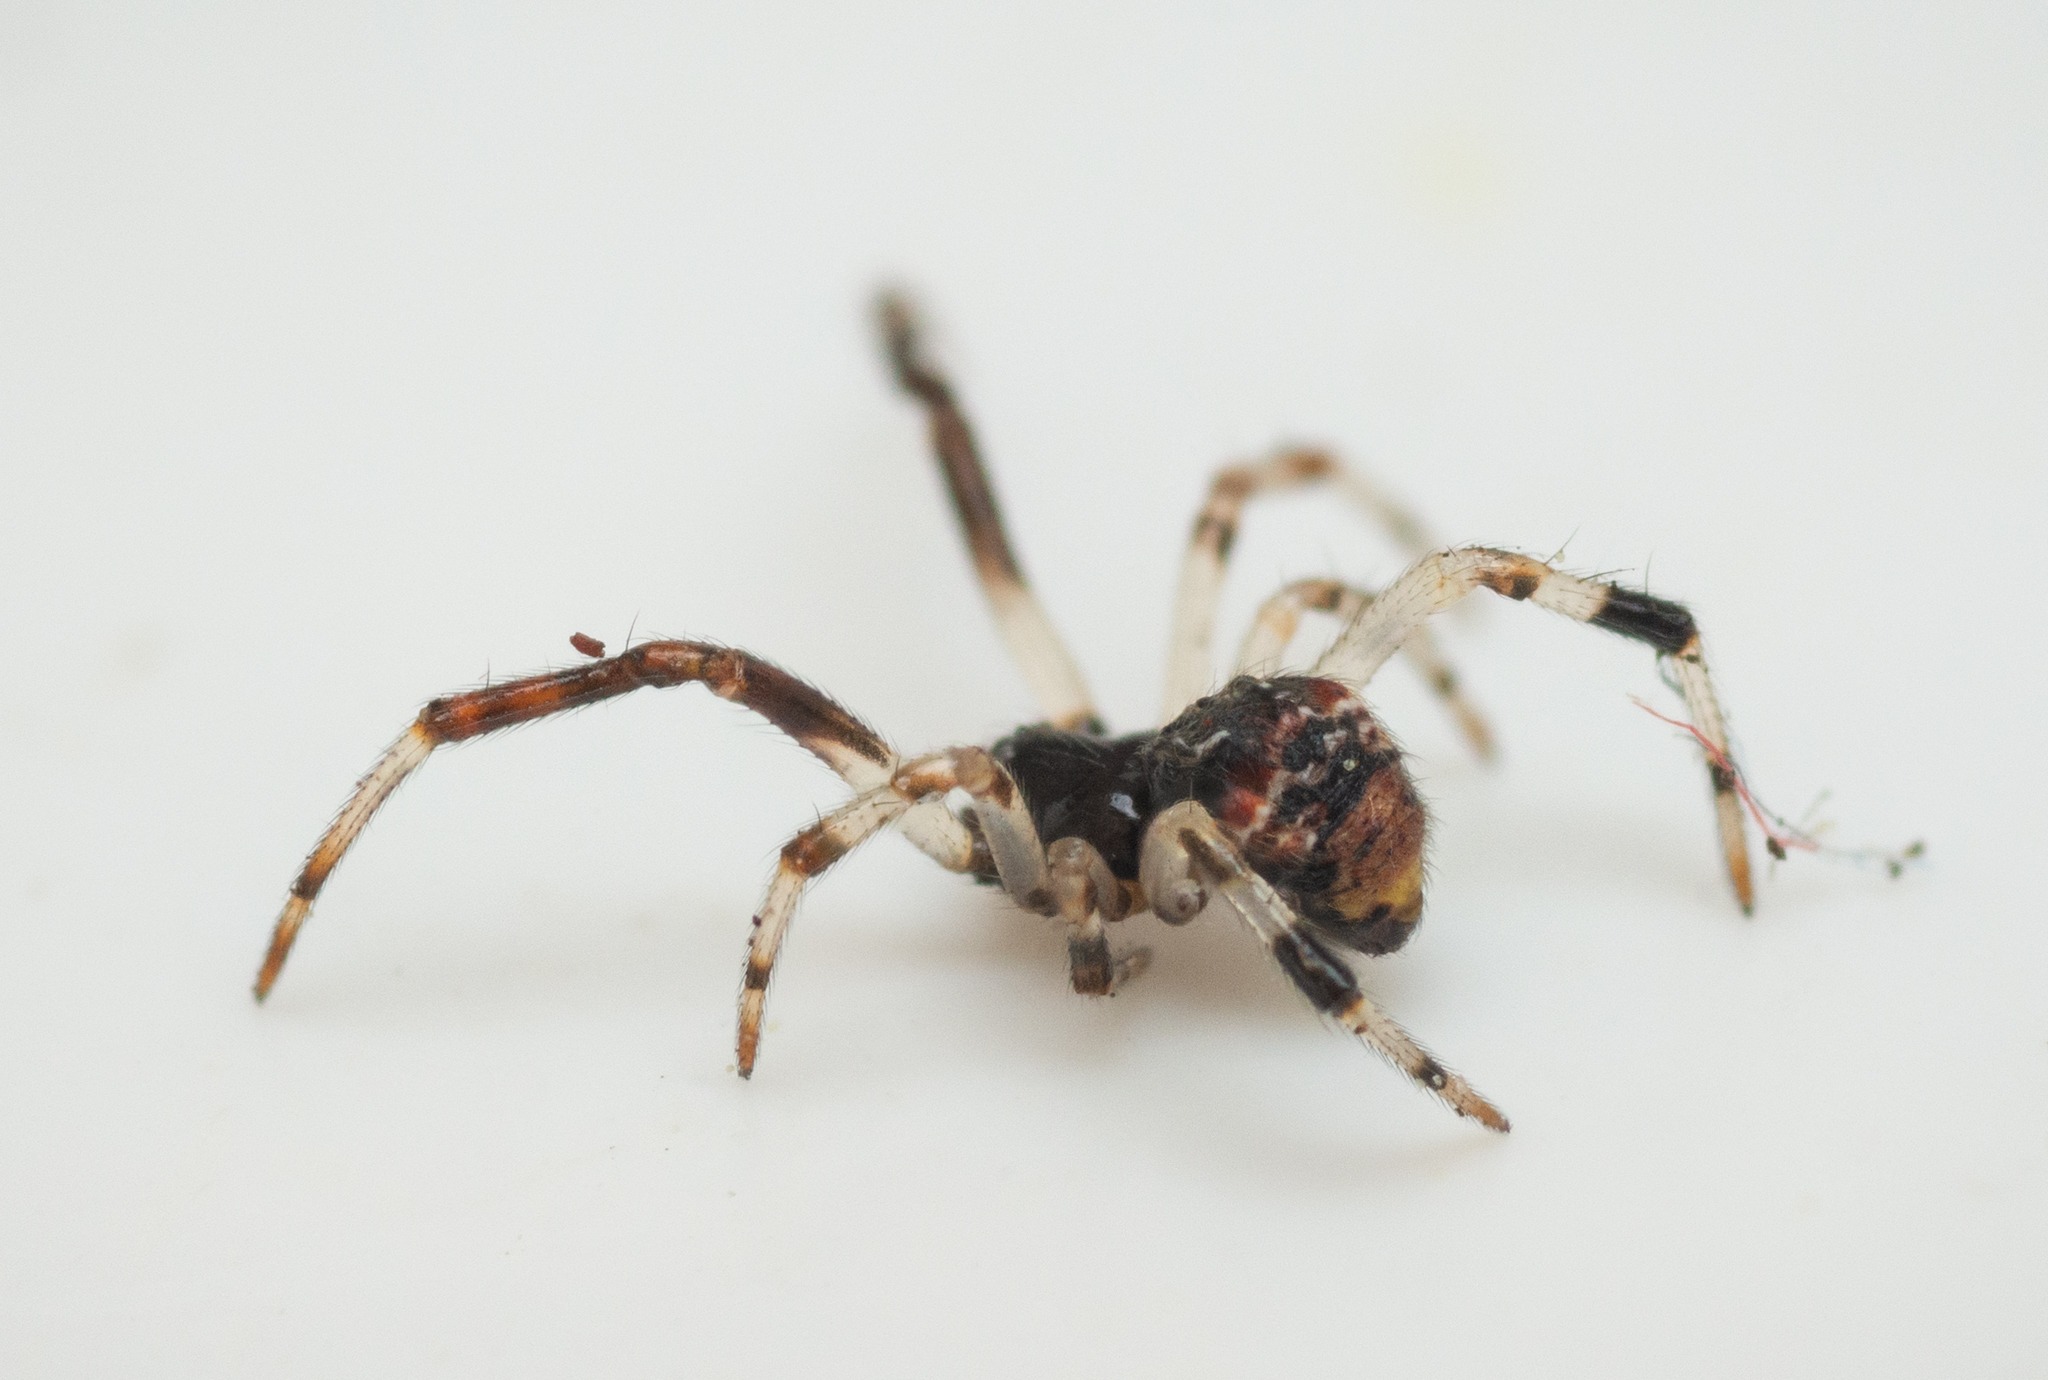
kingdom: Animalia
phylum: Arthropoda
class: Arachnida
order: Araneae
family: Theridiidae
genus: Parasteatoda
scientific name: Parasteatoda lunata
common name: Bladhyttespinder
